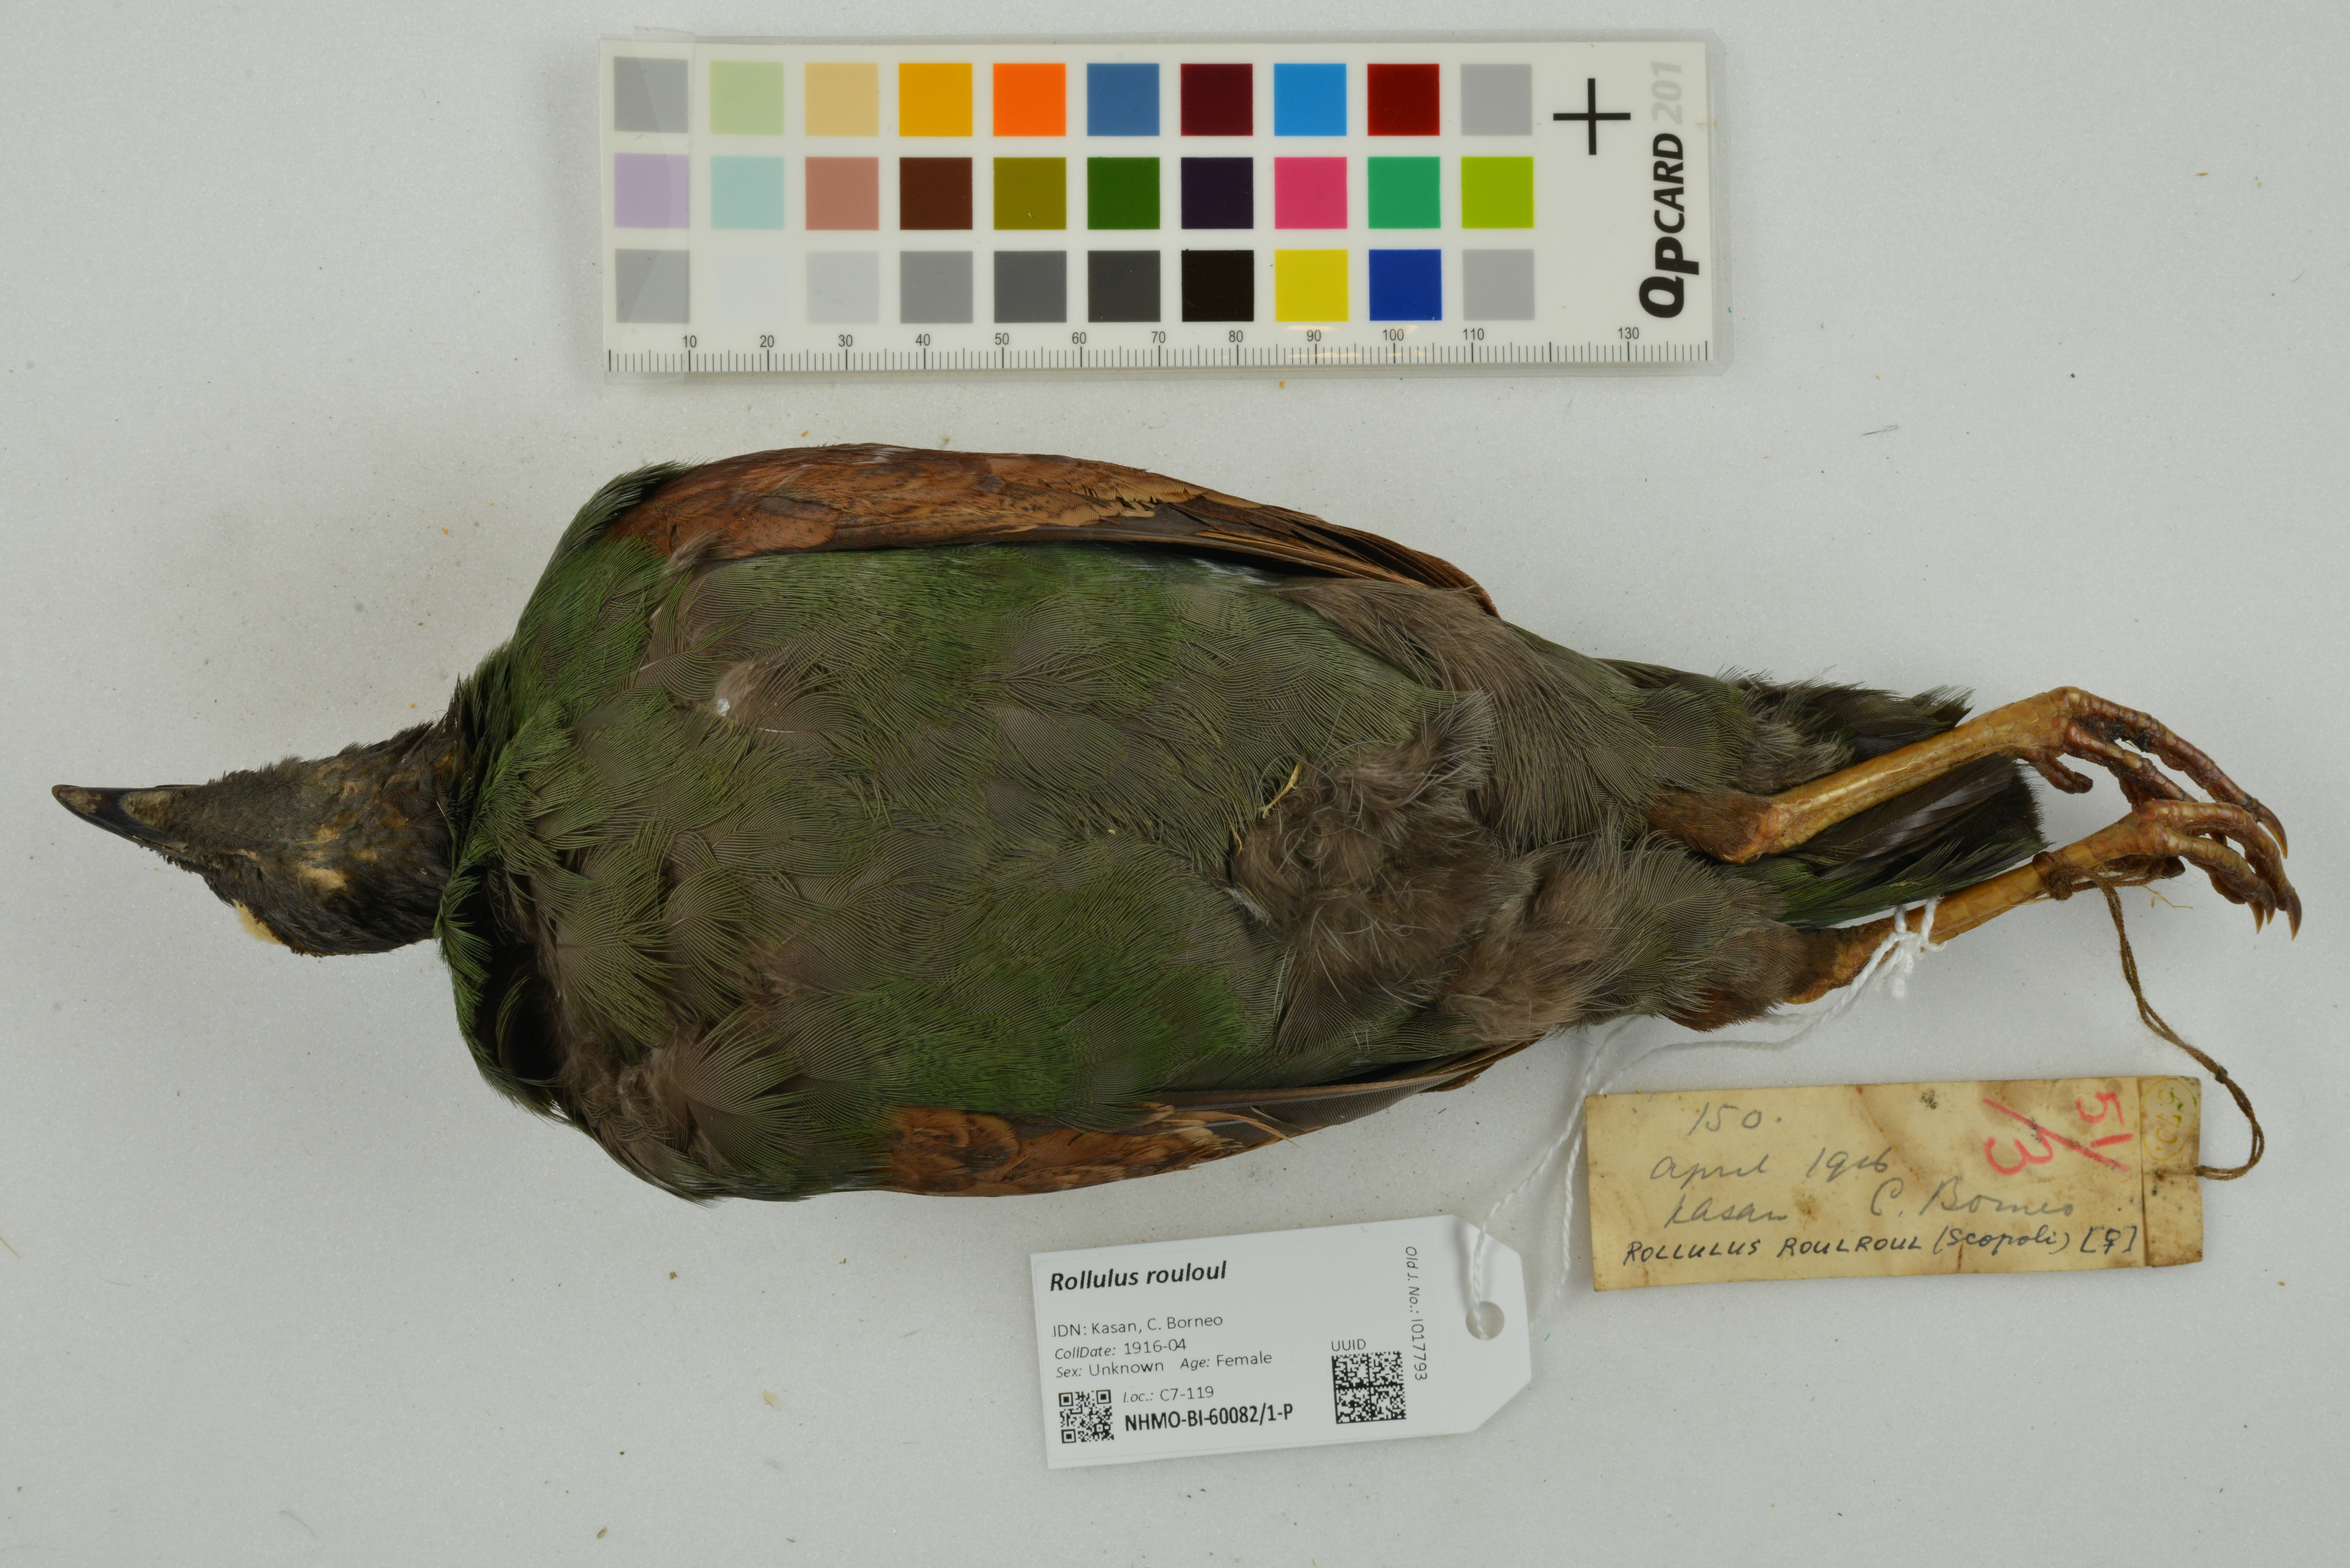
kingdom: Animalia
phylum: Chordata
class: Aves
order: Galliformes
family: Phasianidae
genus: Rollulus
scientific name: Rollulus rouloul
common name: Crested partridge
